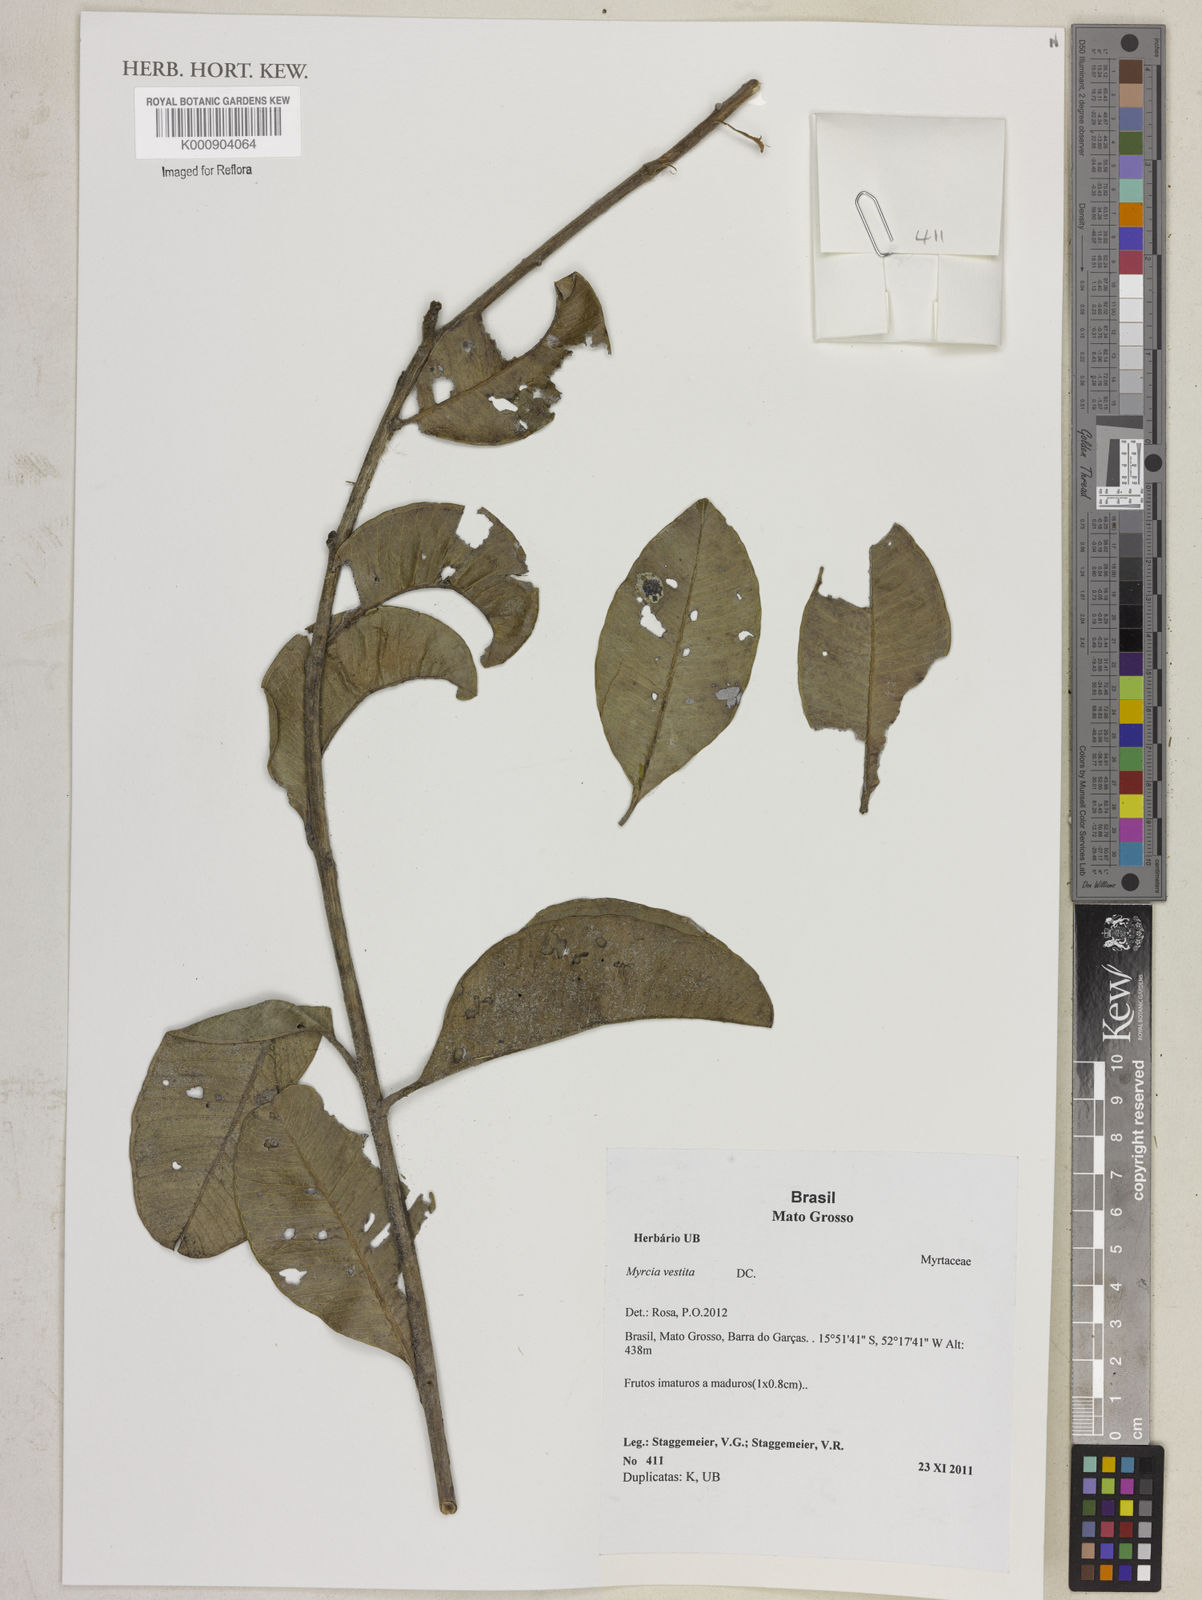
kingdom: Plantae
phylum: Tracheophyta
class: Magnoliopsida
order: Myrtales
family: Myrtaceae
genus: Myrcia
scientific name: Myrcia vestita
